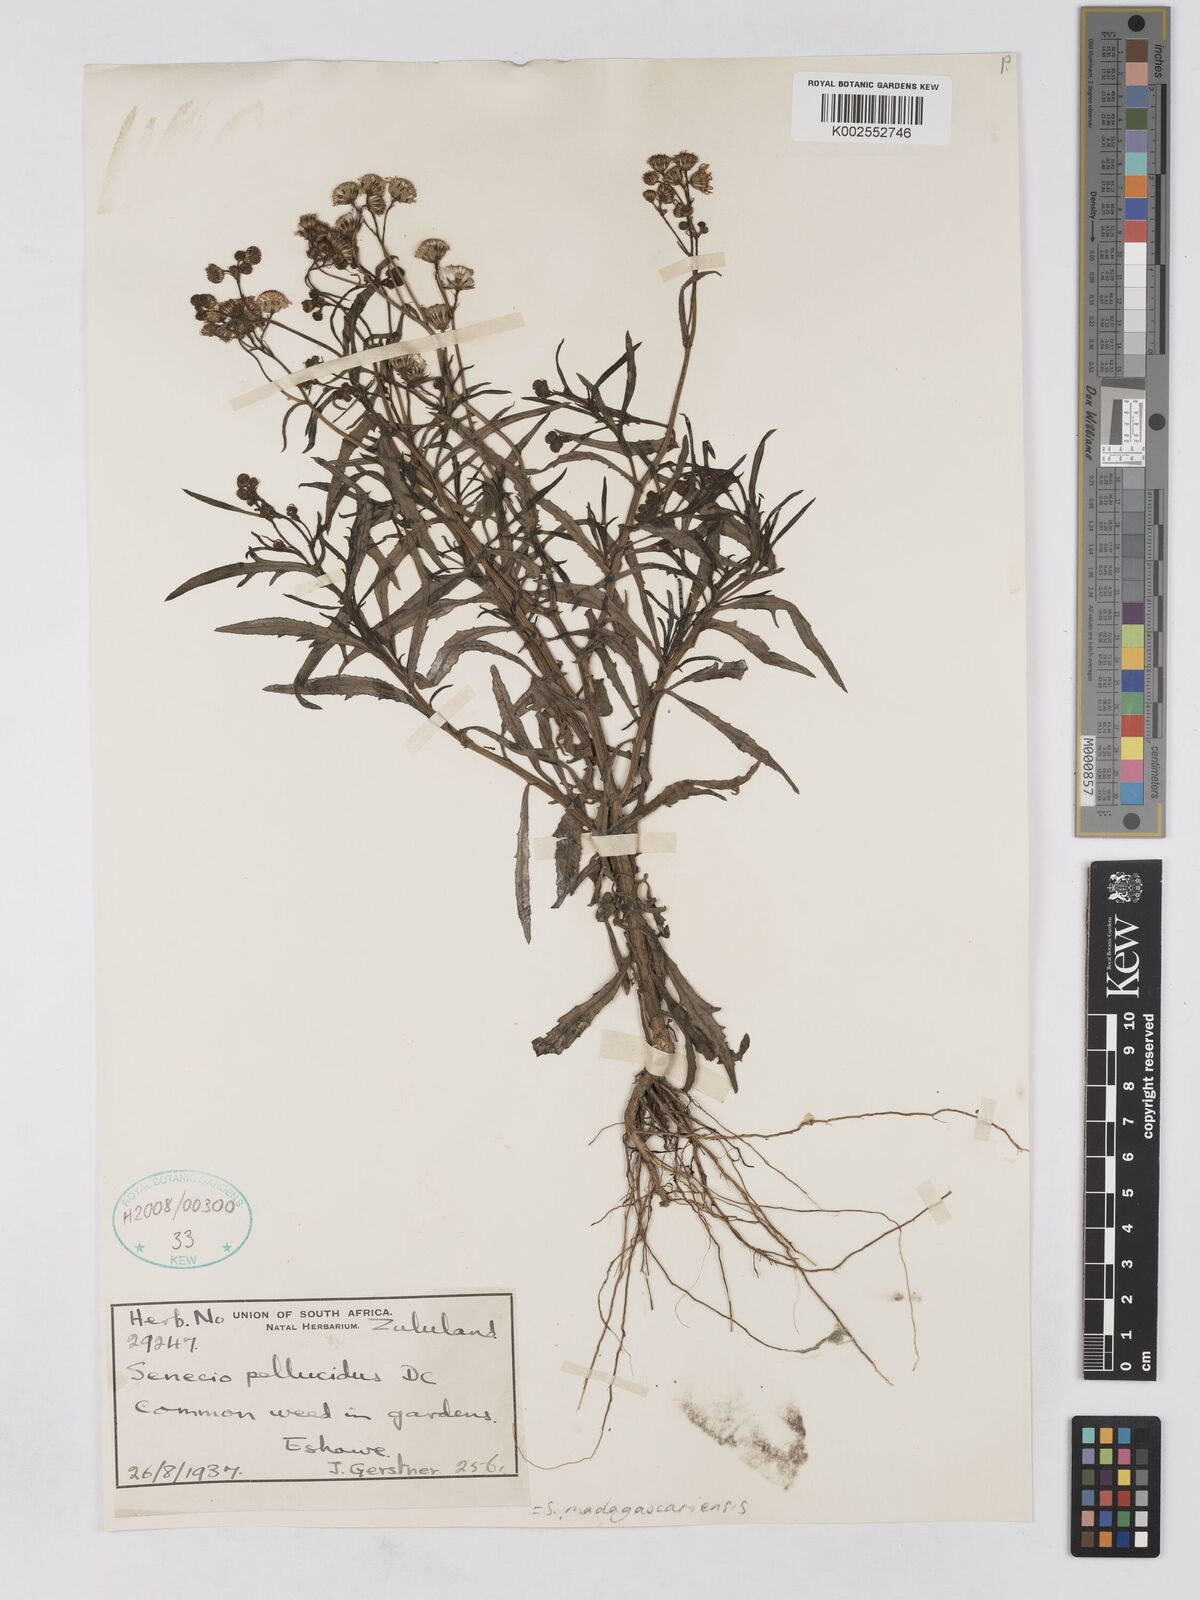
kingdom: Plantae
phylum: Tracheophyta
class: Magnoliopsida
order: Asterales
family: Asteraceae
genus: Senecio
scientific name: Senecio madagascariensis
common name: Madagascar ragwort
